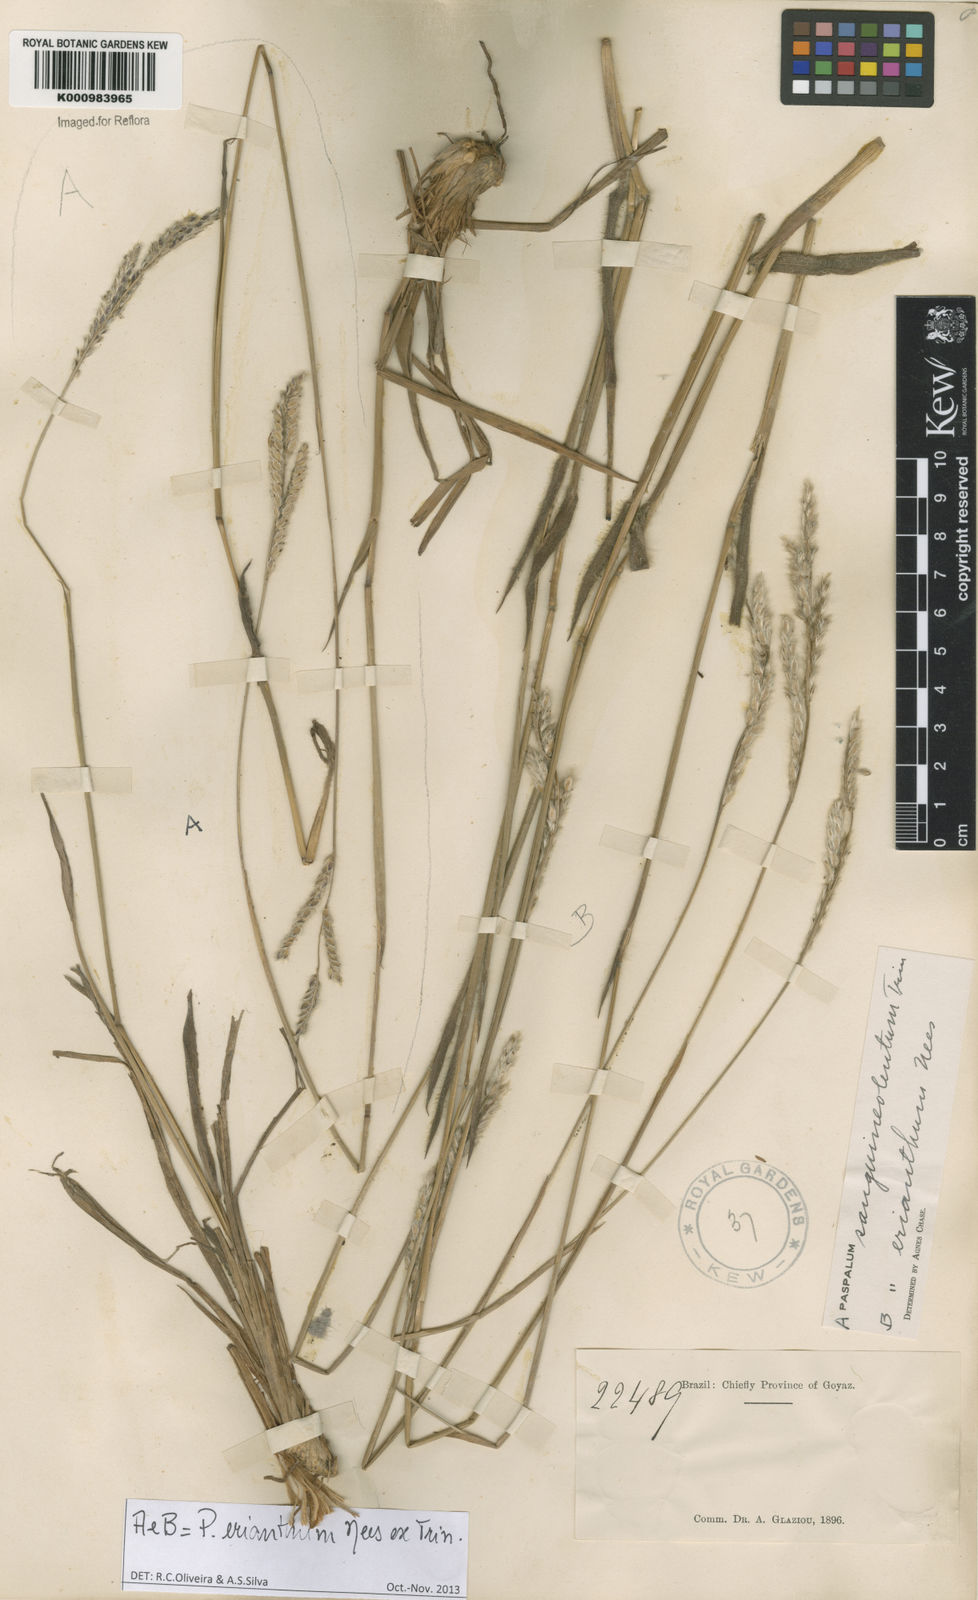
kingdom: Plantae
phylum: Tracheophyta
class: Liliopsida
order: Poales
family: Poaceae
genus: Paspalum
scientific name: Paspalum erianthum
